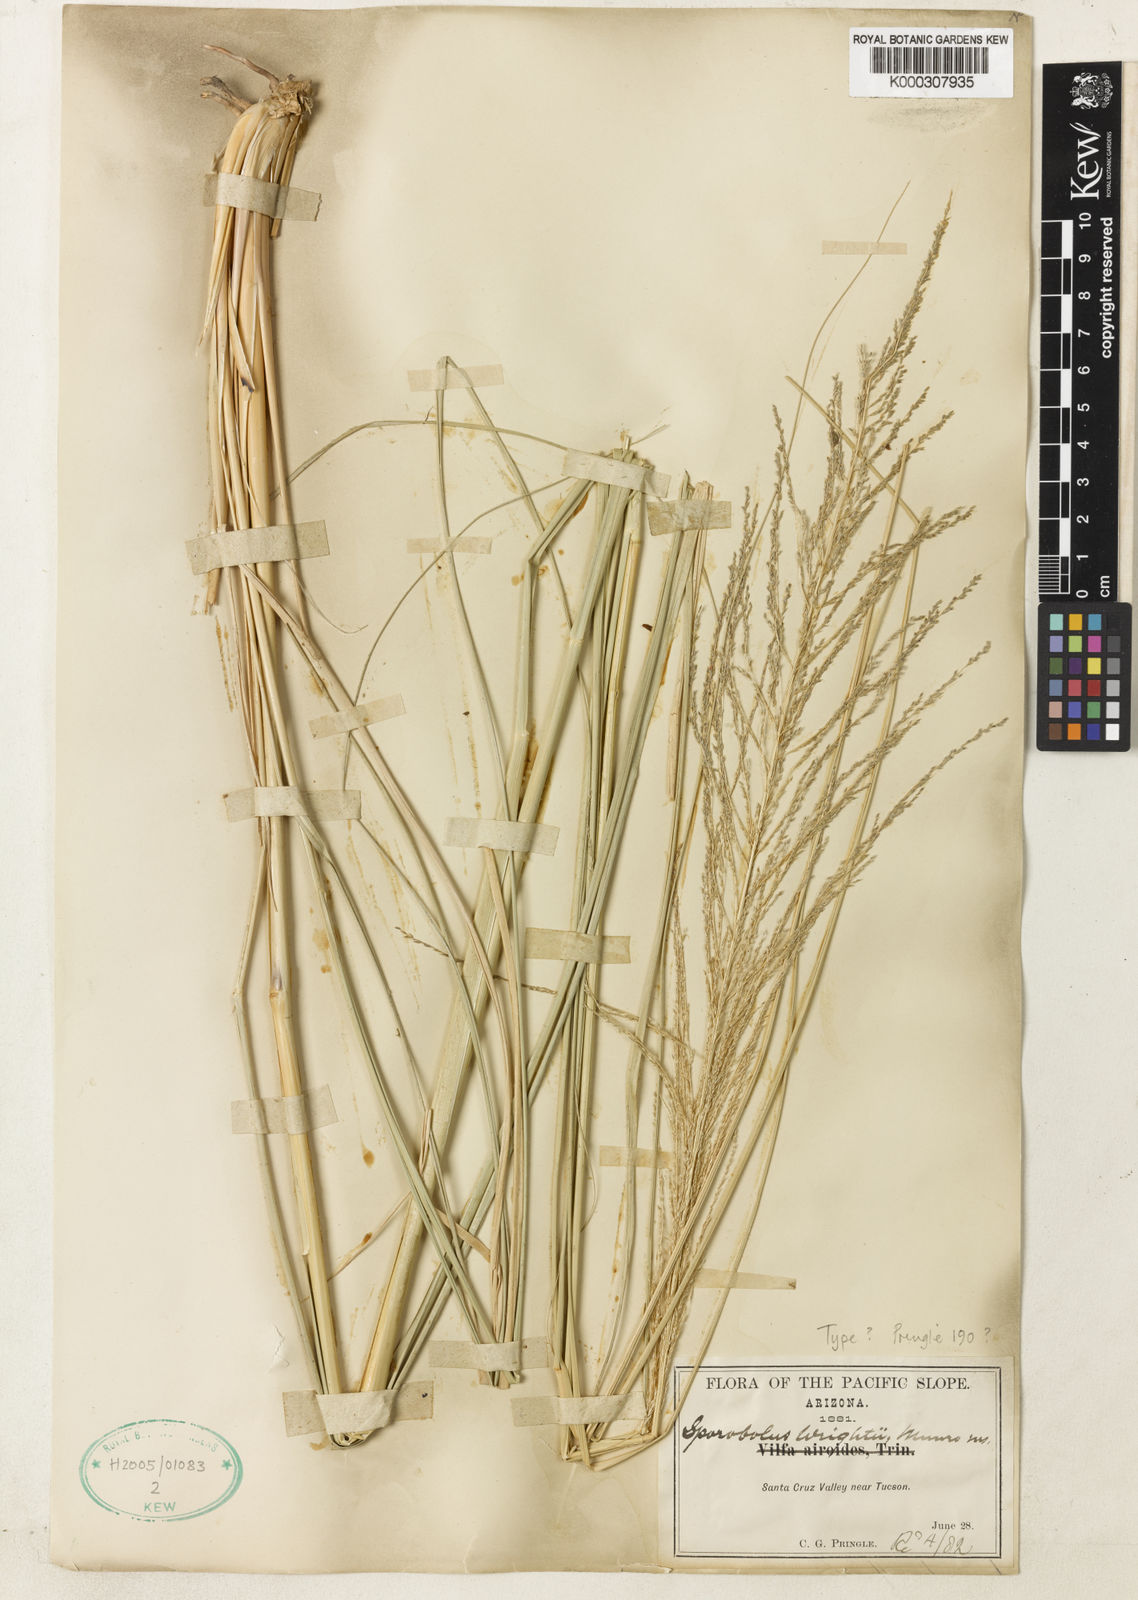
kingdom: Plantae
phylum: Tracheophyta
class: Liliopsida
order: Poales
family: Poaceae
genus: Sporobolus
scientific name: Sporobolus wrightii
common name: Big alkali sacaton
